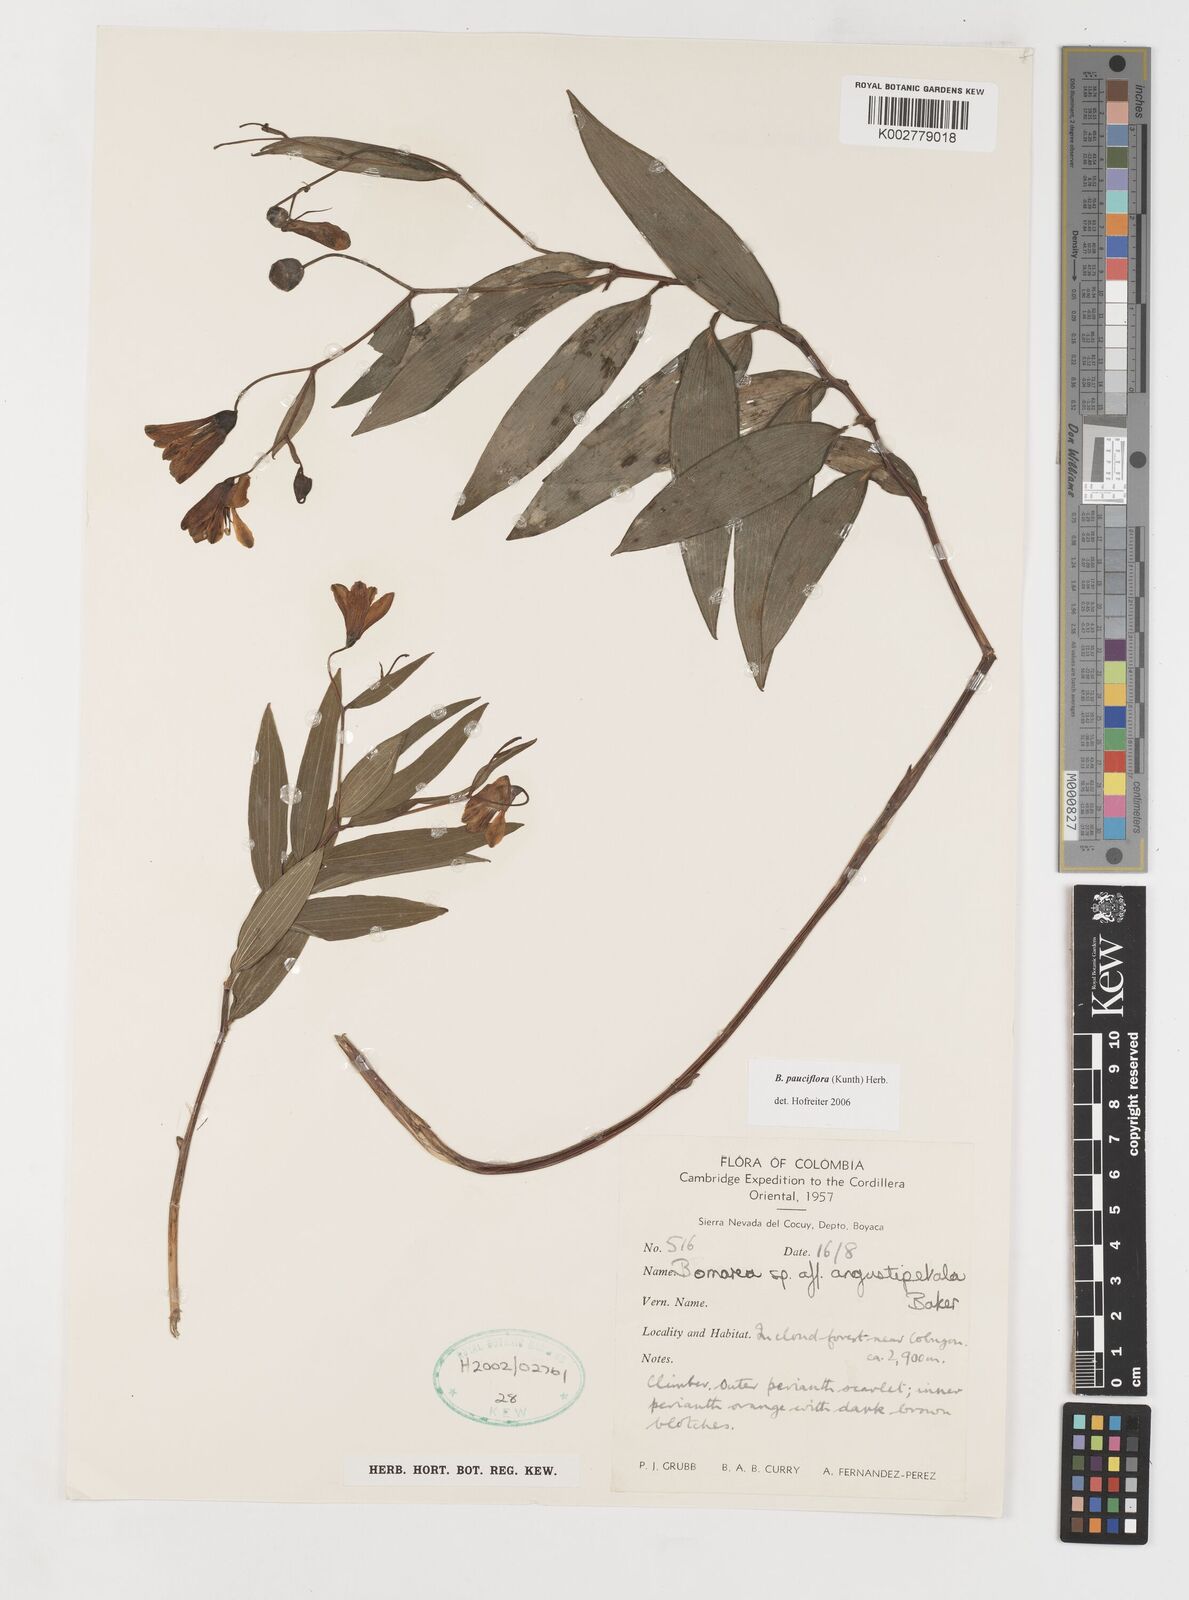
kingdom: Plantae
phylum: Tracheophyta
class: Liliopsida
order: Liliales
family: Alstroemeriaceae
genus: Bomarea
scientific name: Bomarea pauciflora
